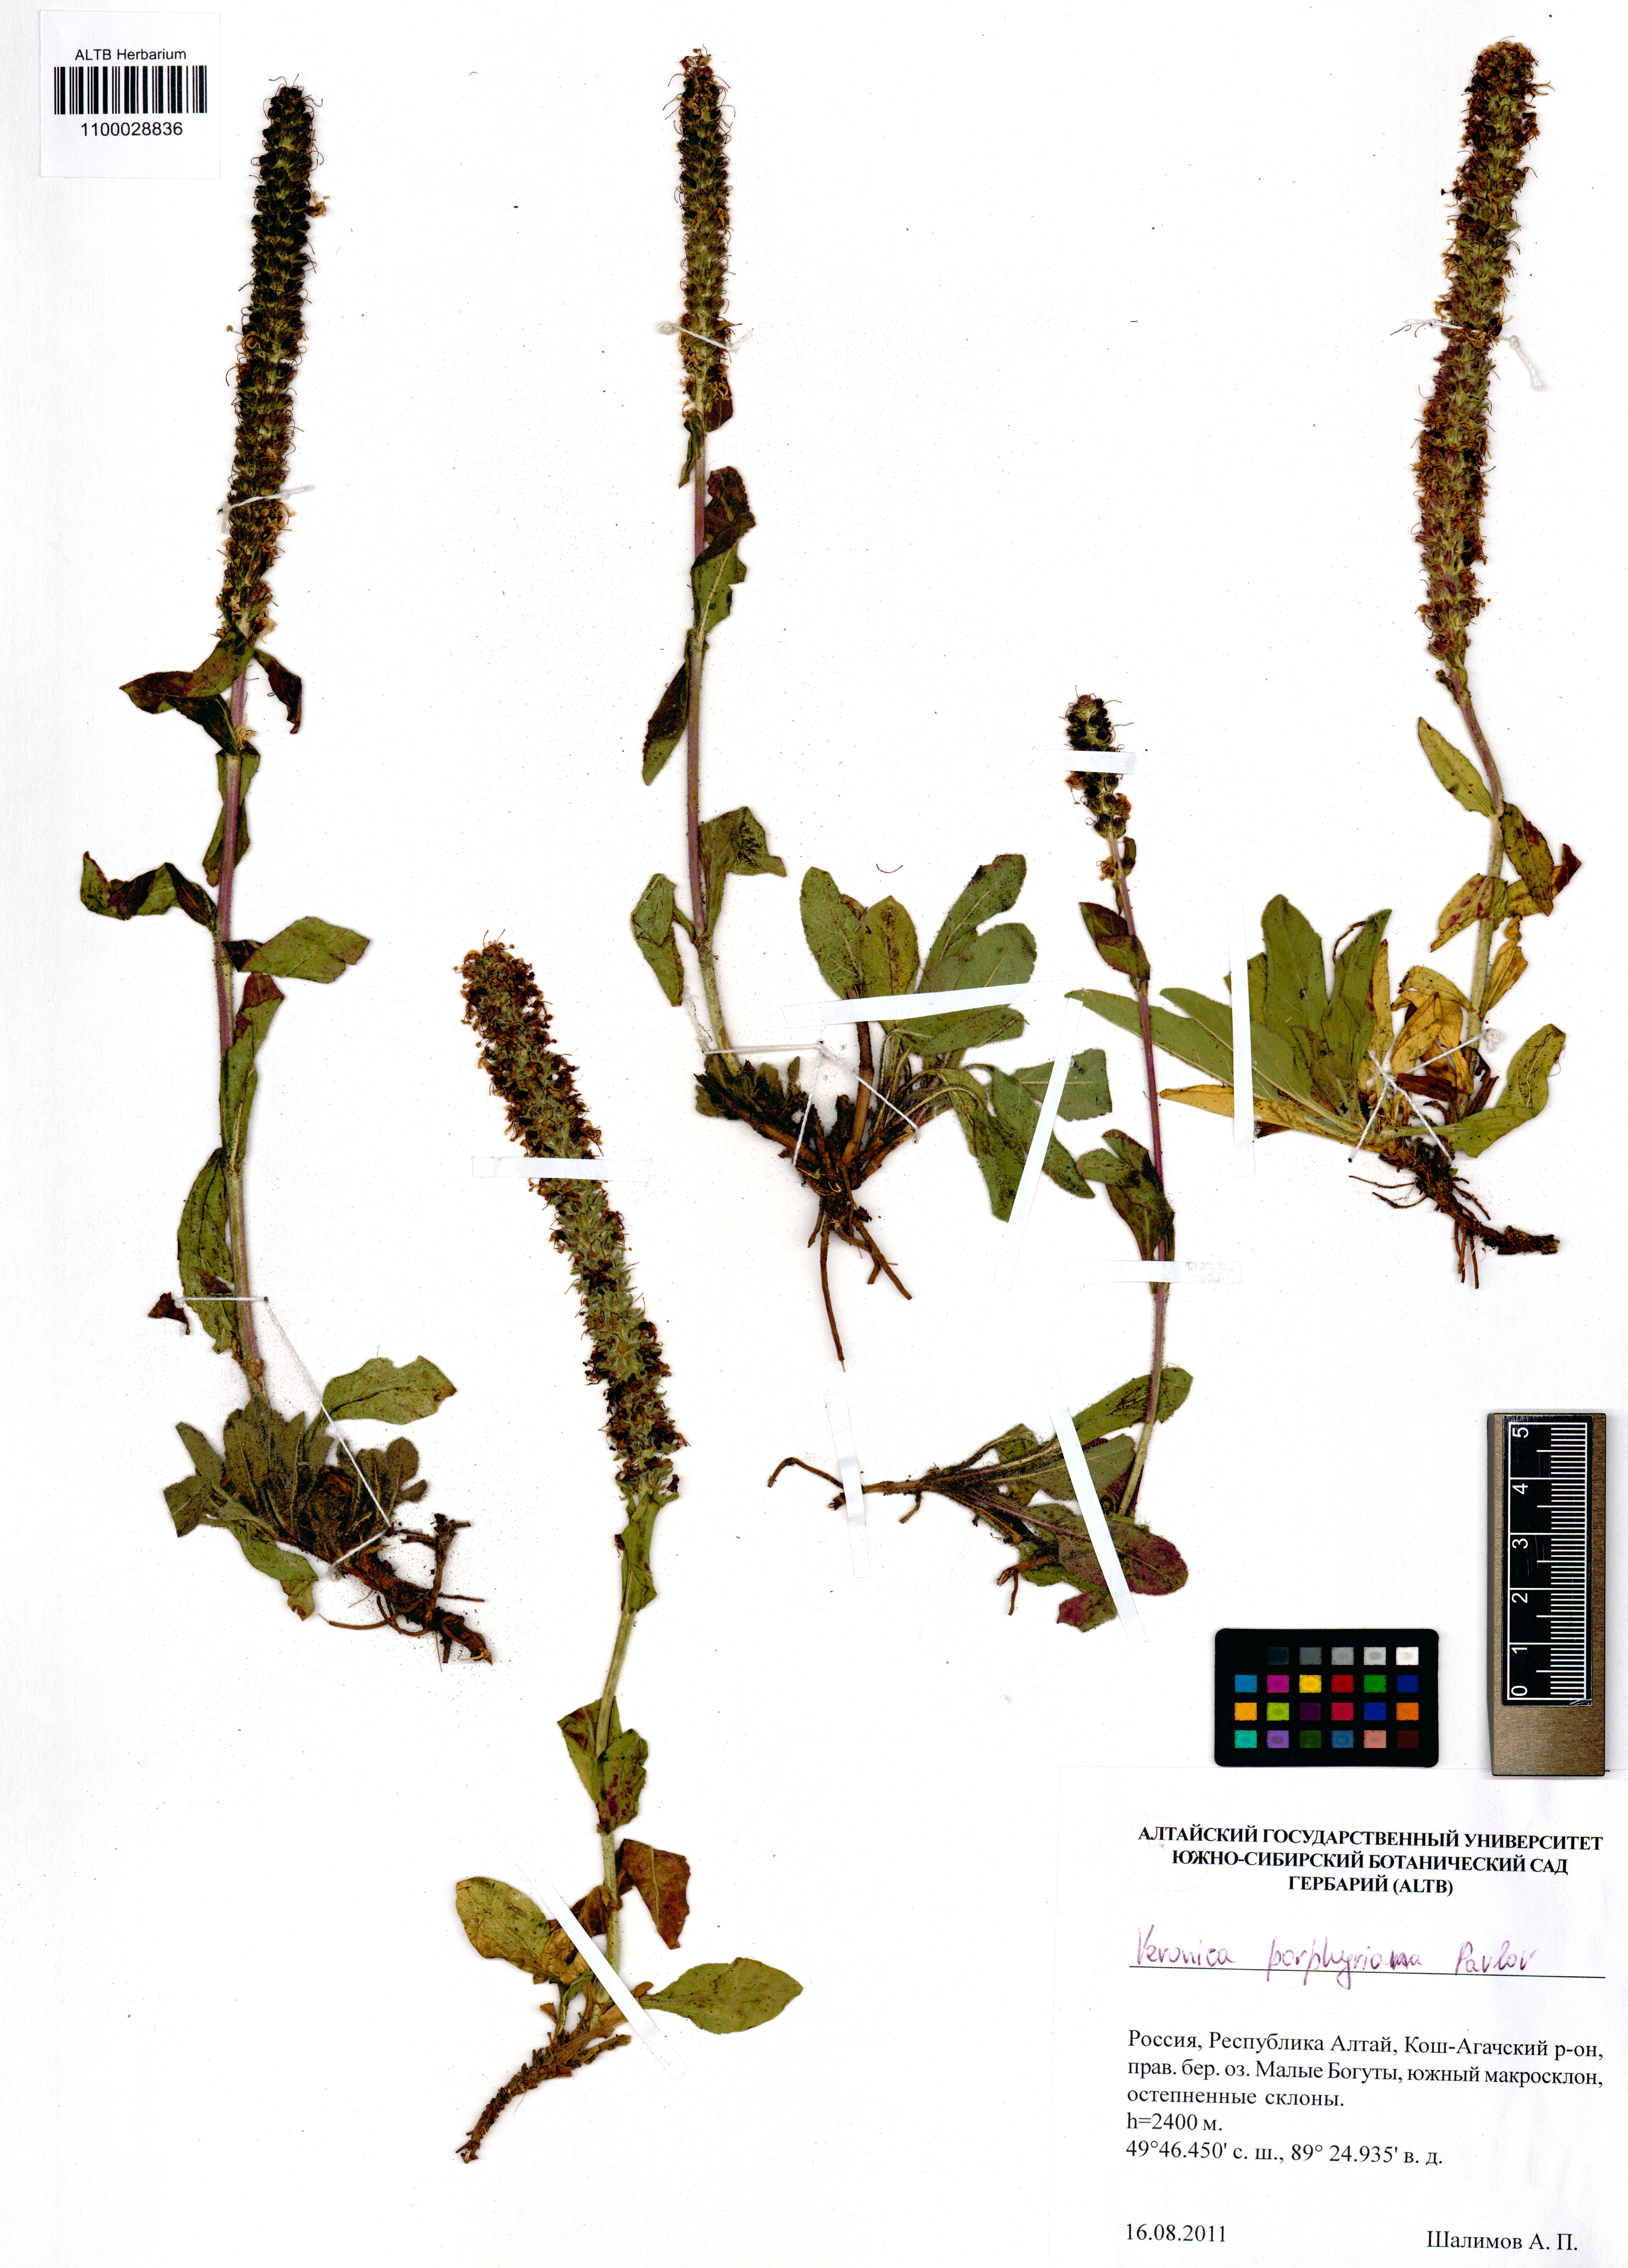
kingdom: Plantae
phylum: Tracheophyta
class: Magnoliopsida
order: Lamiales
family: Plantaginaceae
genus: Veronica
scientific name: Veronica porphyriana
